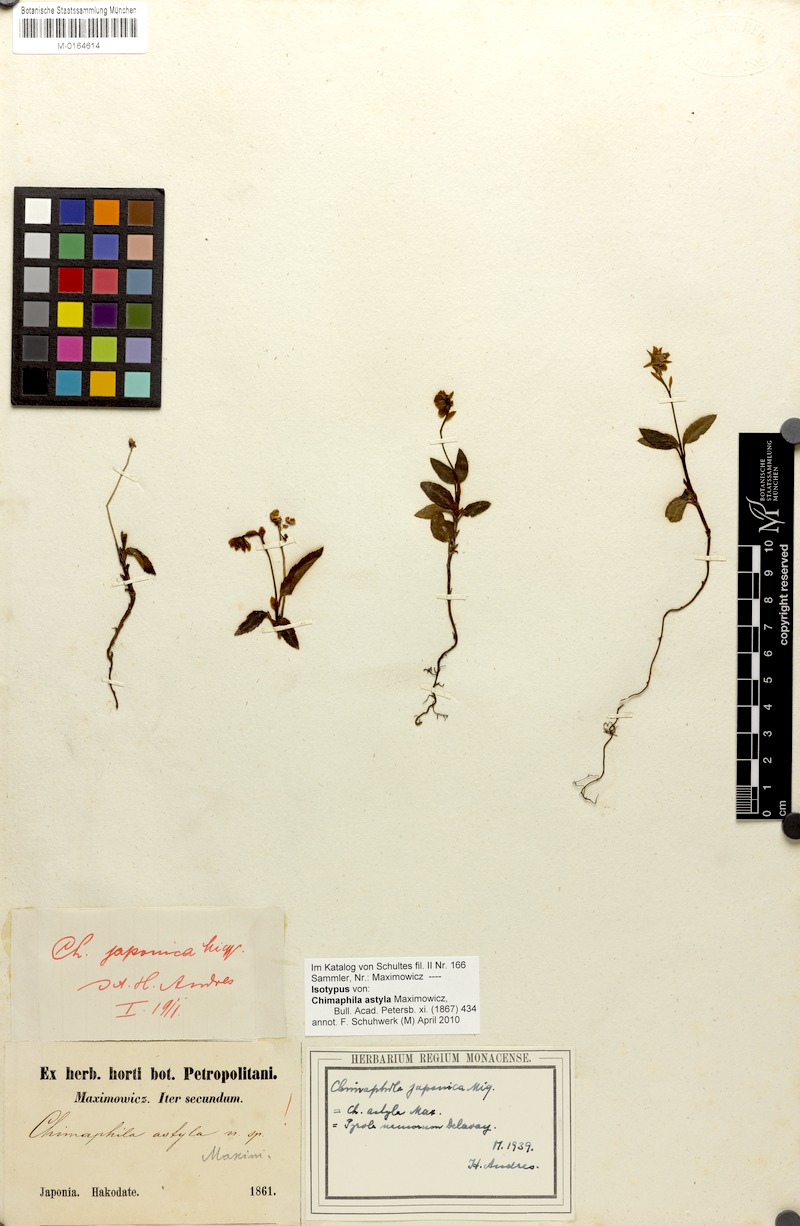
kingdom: Plantae
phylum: Tracheophyta
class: Magnoliopsida
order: Ericales
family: Ericaceae
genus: Chimaphila
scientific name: Chimaphila japonica
